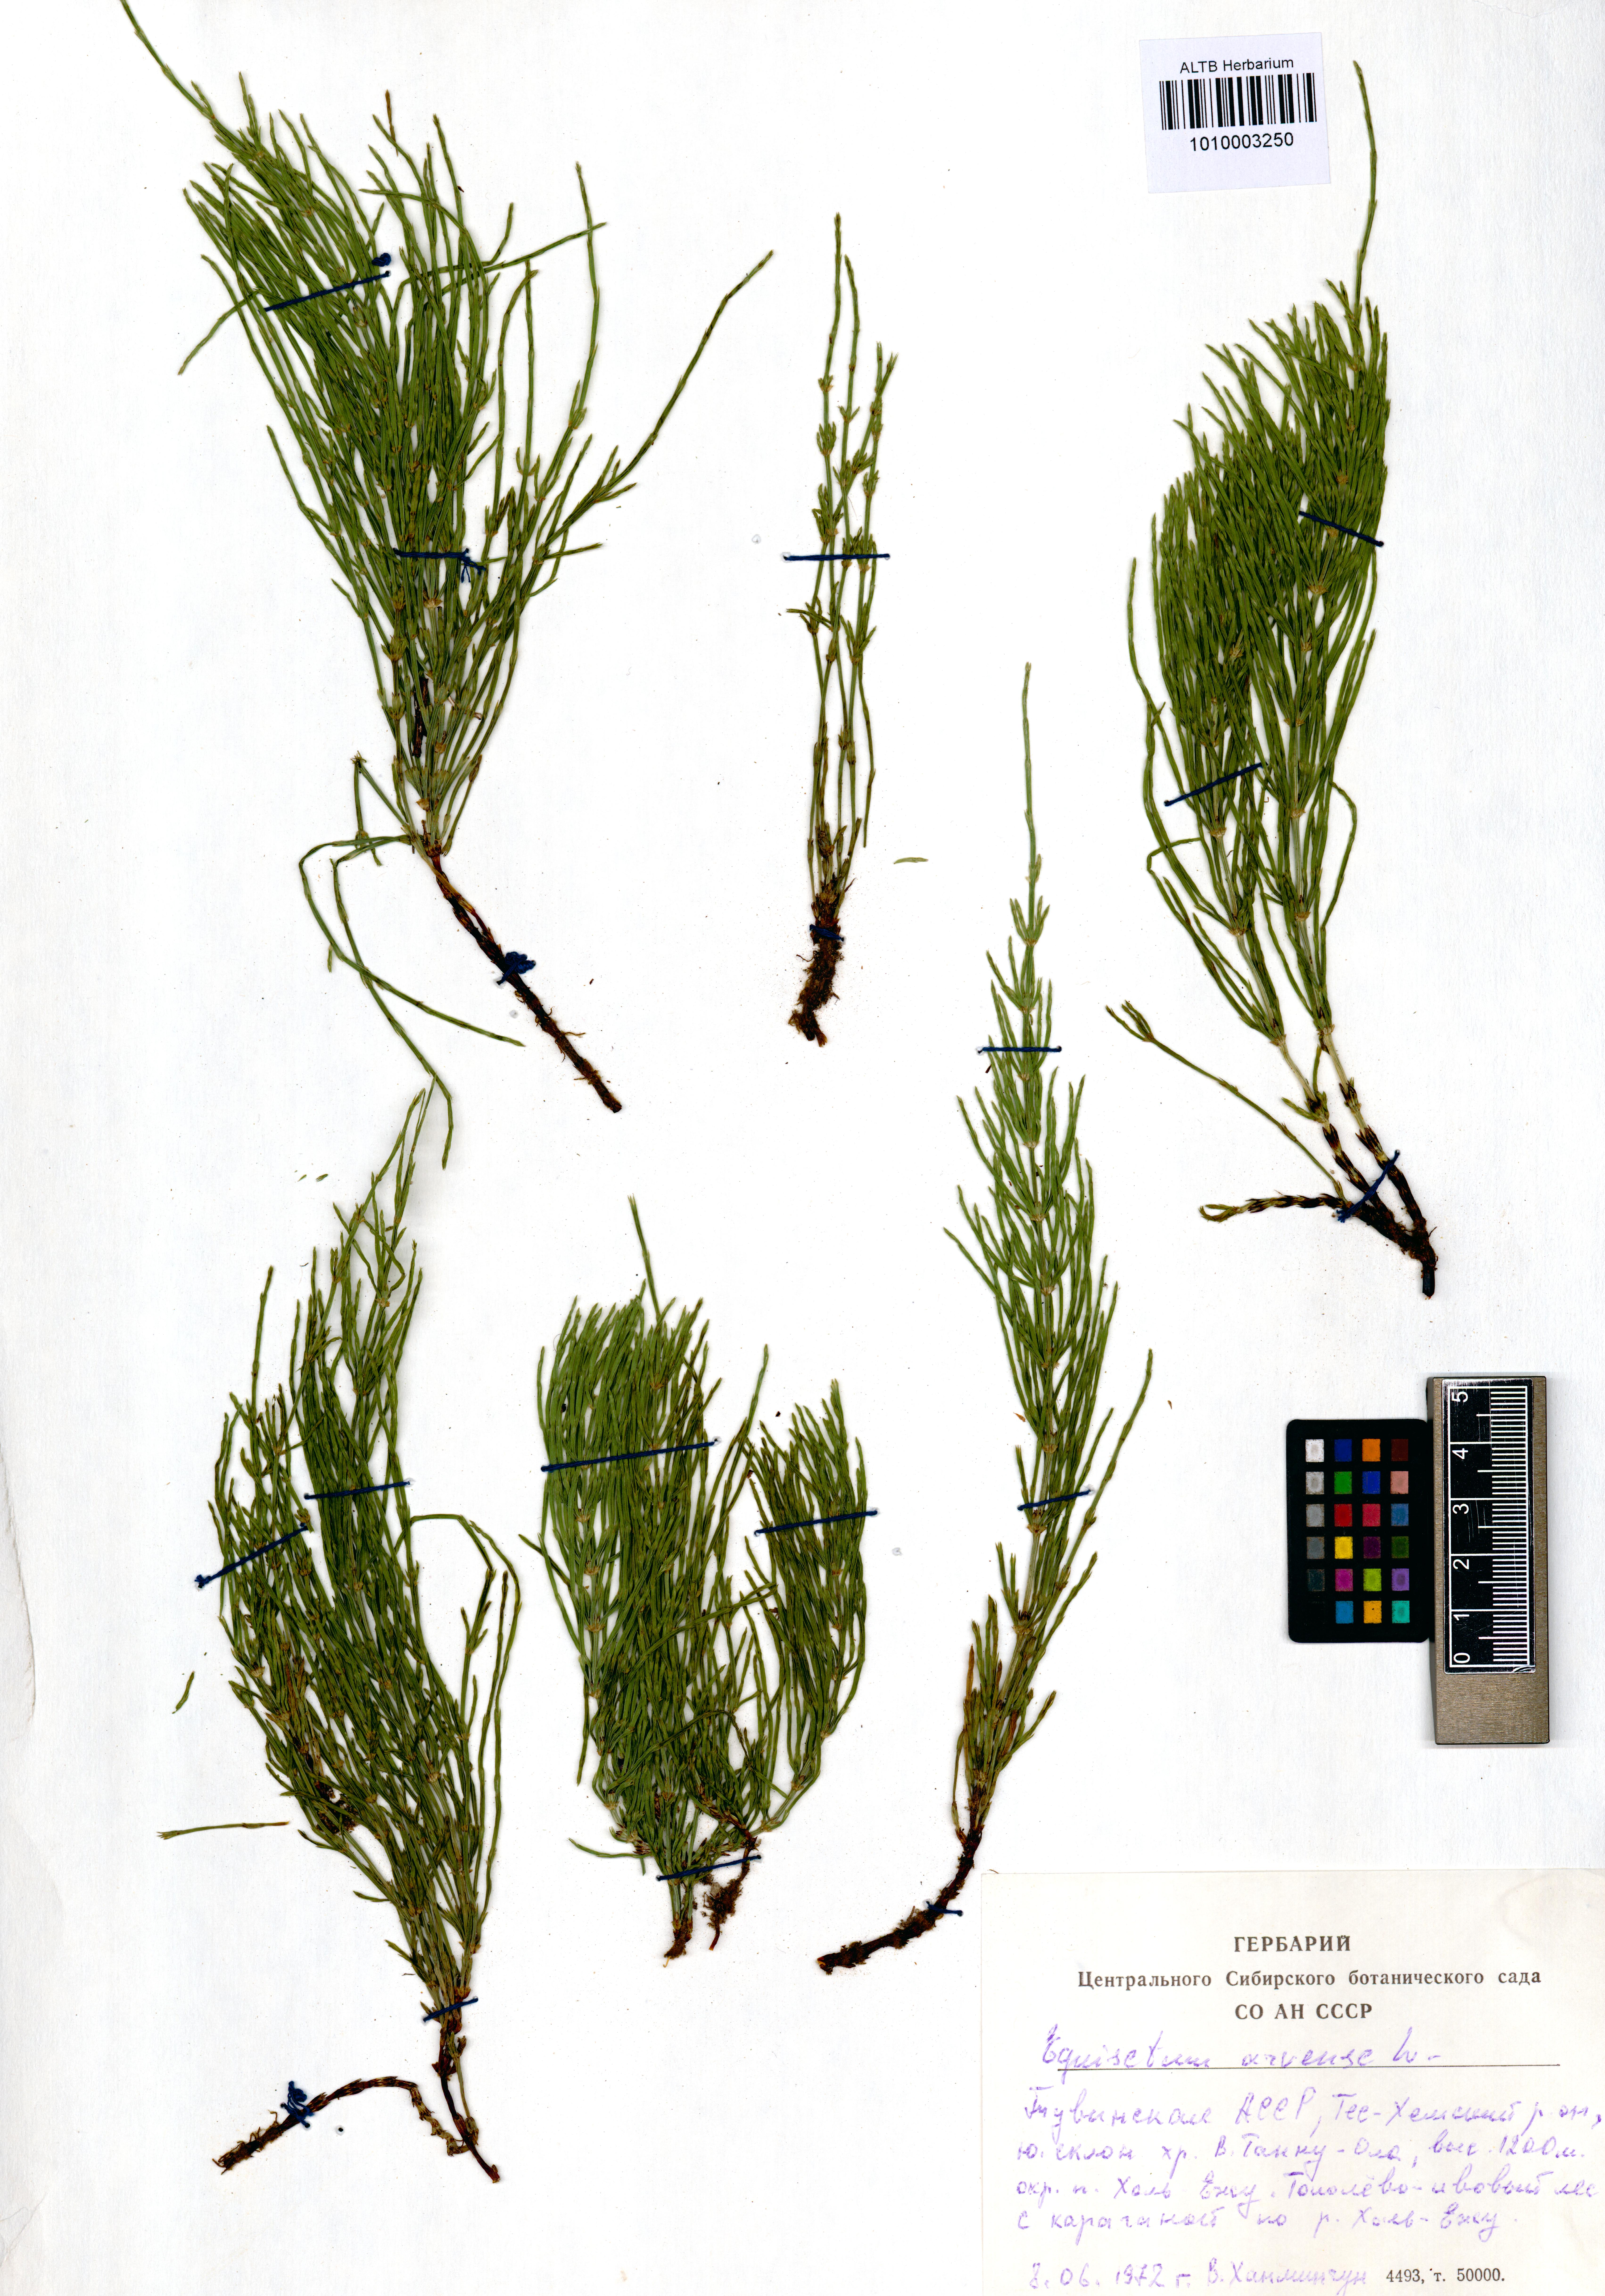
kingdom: Plantae
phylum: Tracheophyta
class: Polypodiopsida
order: Equisetales
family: Equisetaceae
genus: Equisetum
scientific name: Equisetum arvense
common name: Field horsetail
